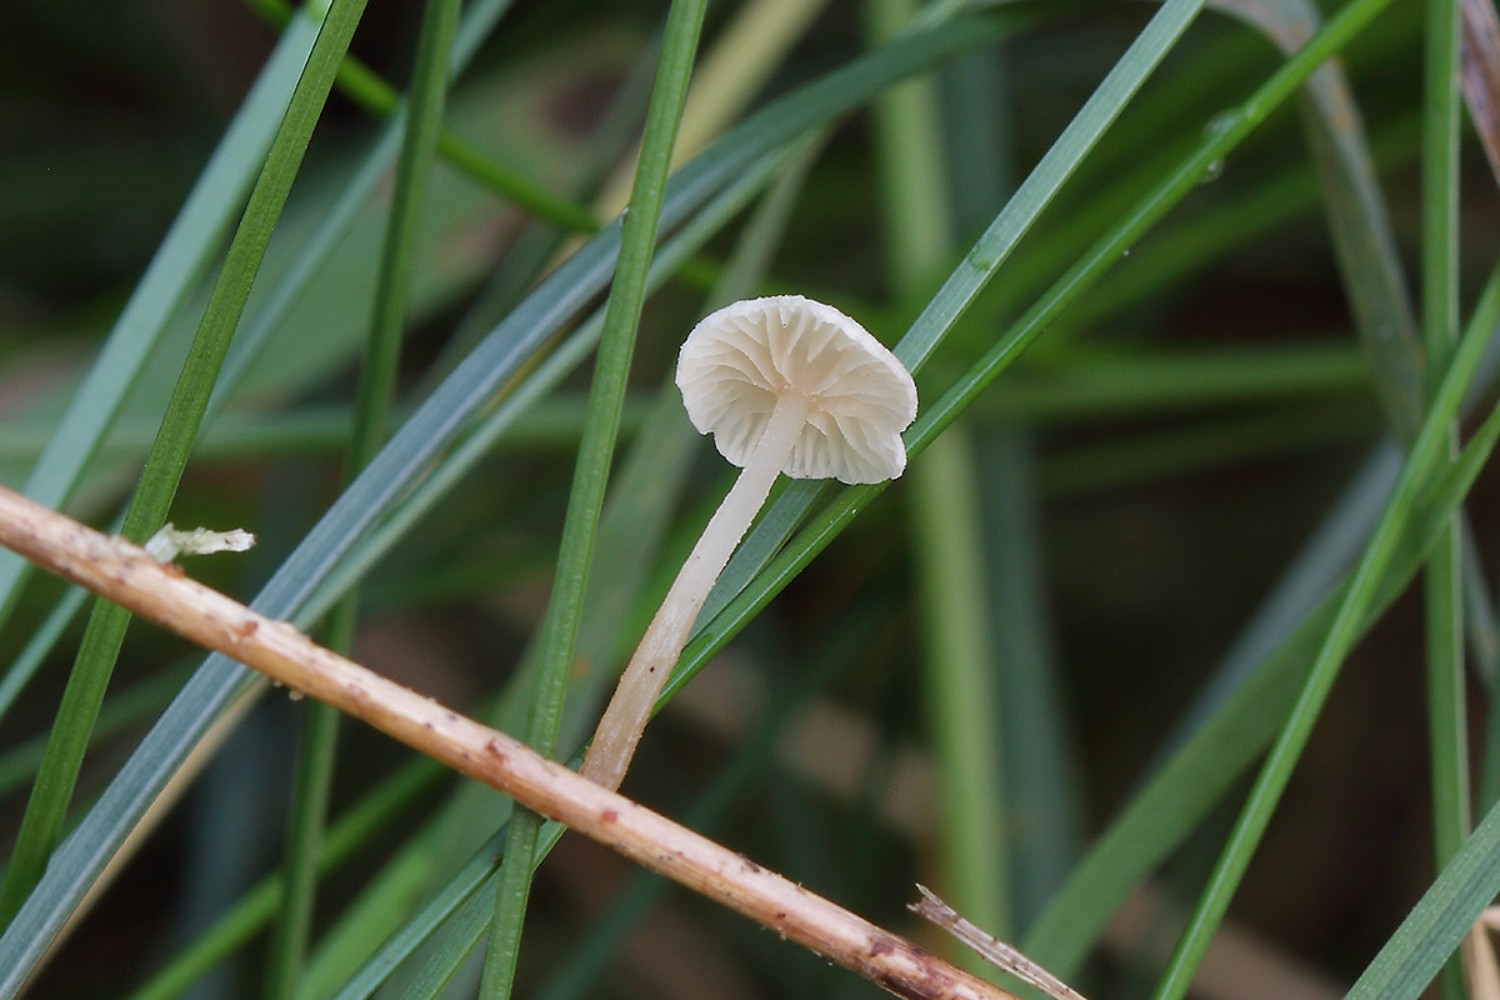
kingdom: Fungi
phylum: Basidiomycota
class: Agaricomycetes
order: Agaricales
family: Omphalotaceae
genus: Collybiopsis
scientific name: Collybiopsis vaillantii
